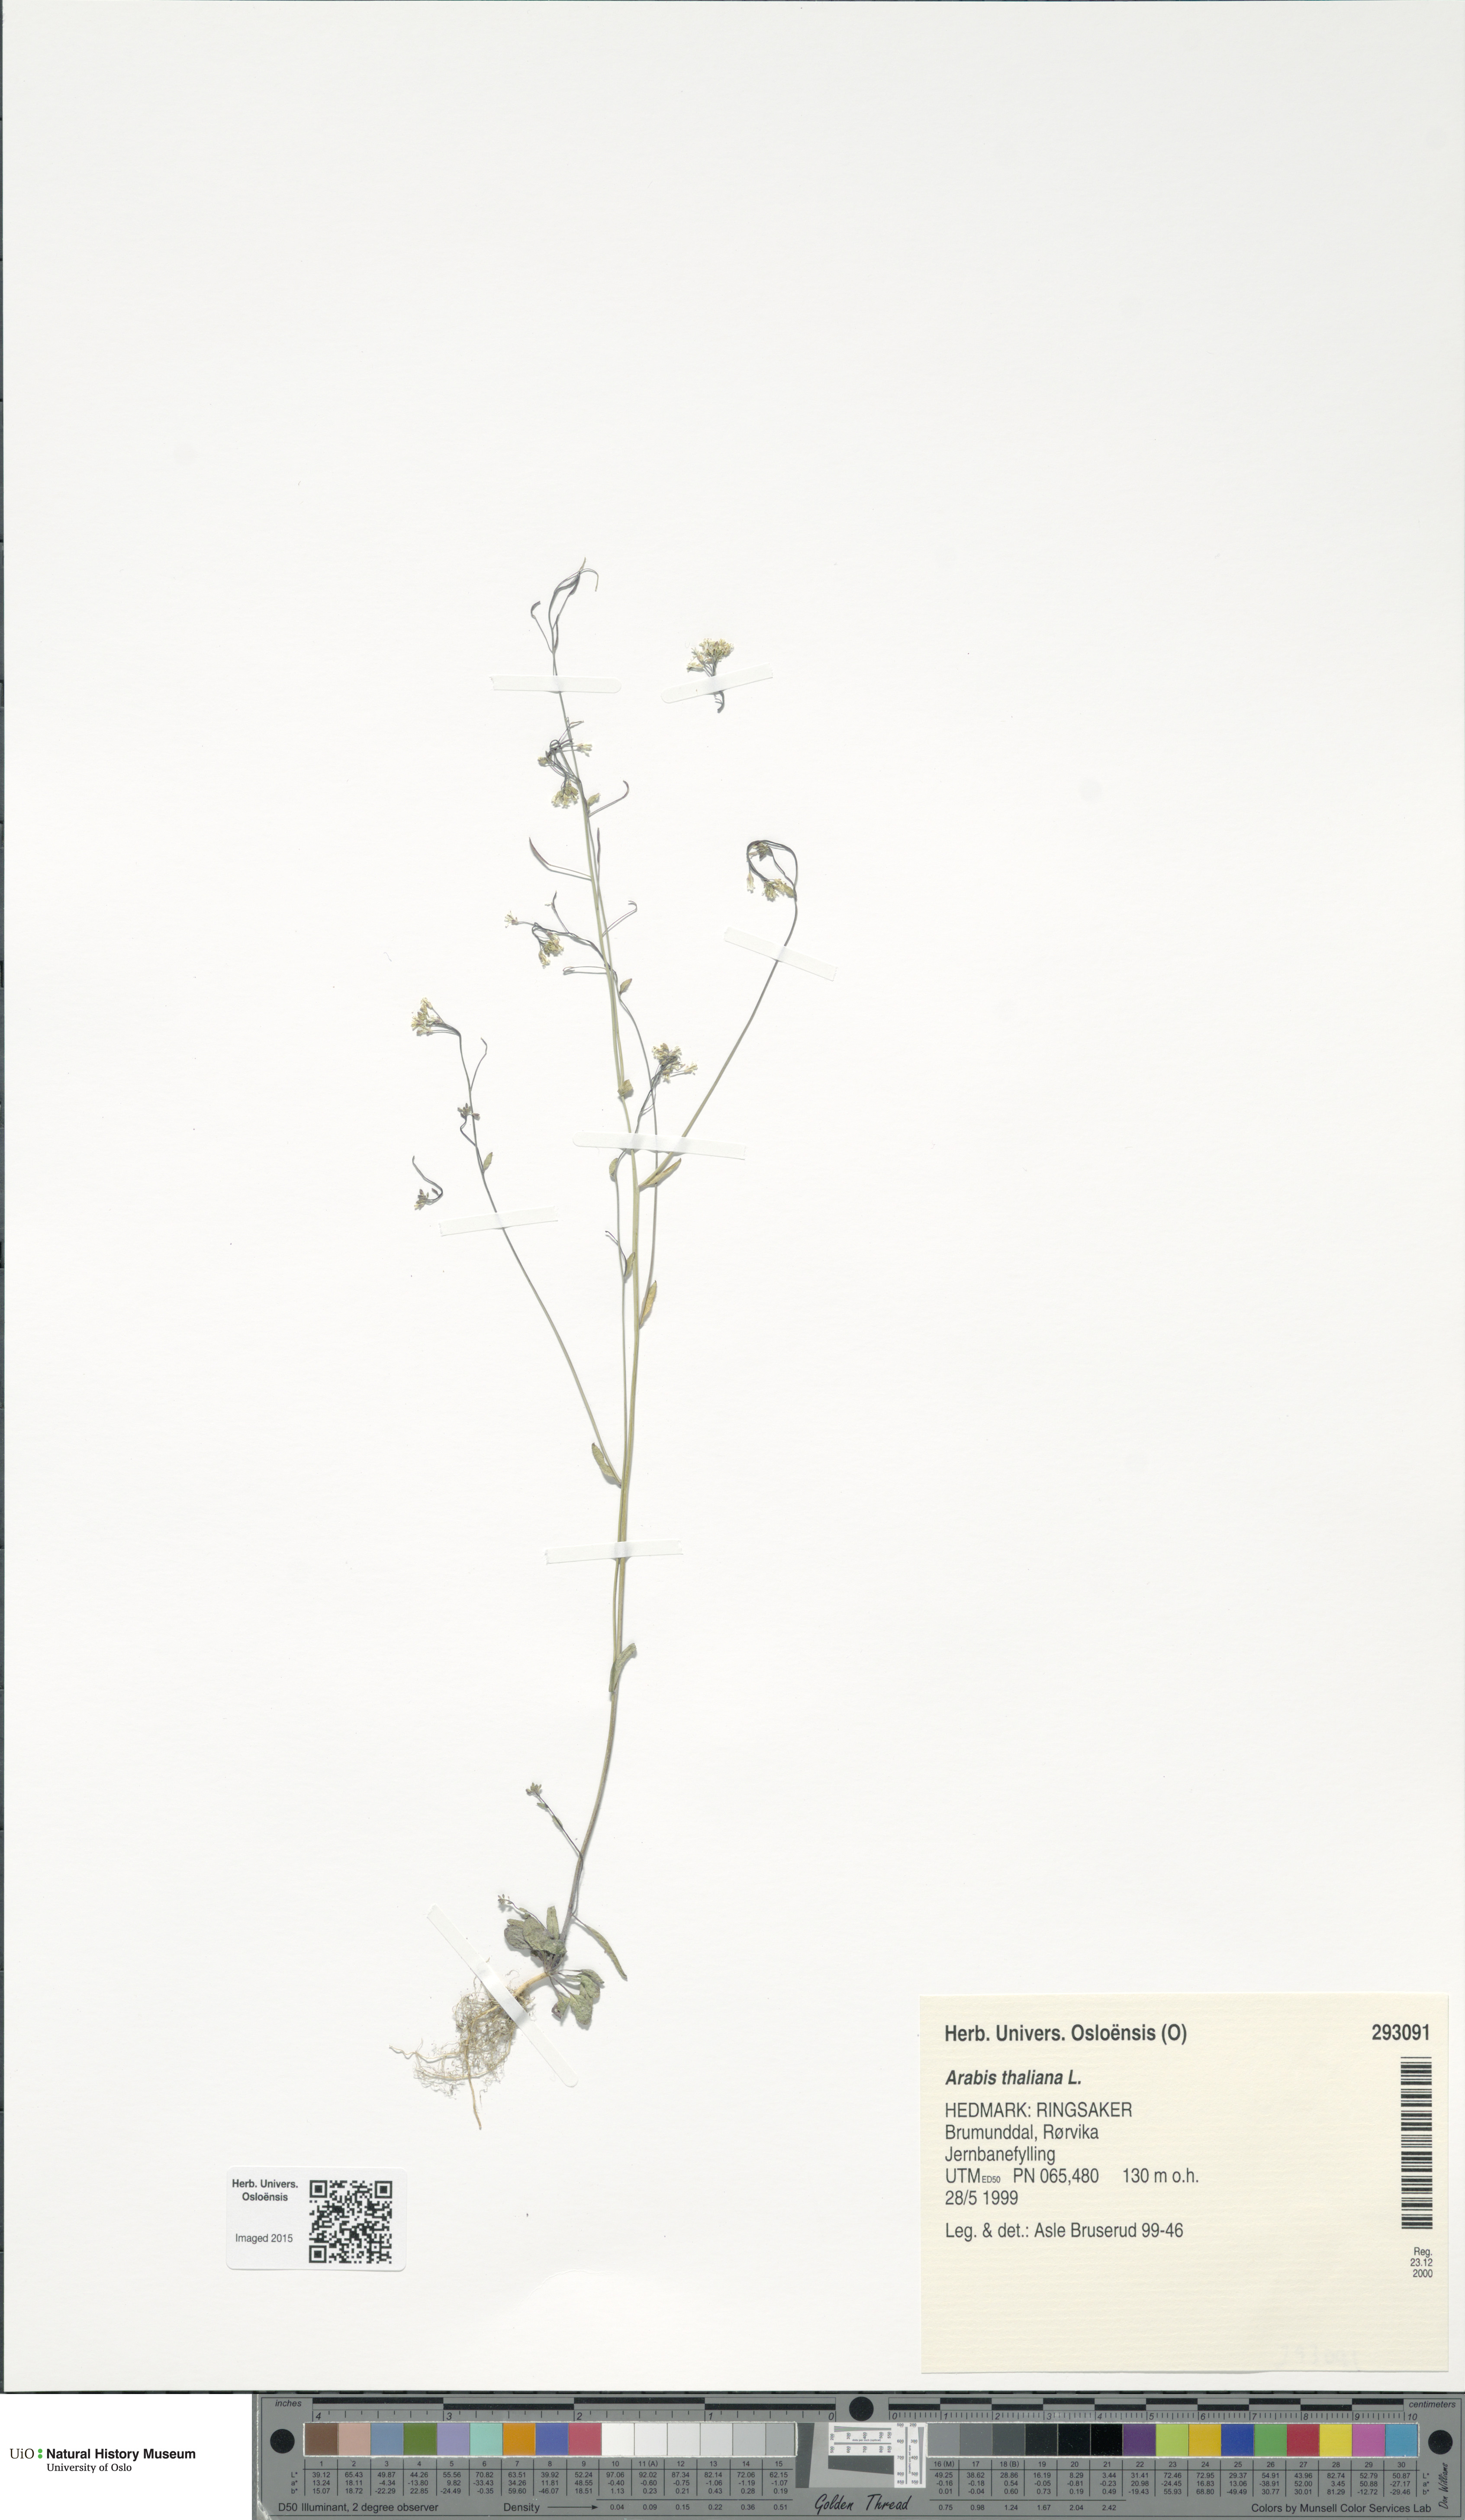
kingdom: Plantae
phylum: Tracheophyta
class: Magnoliopsida
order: Brassicales
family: Brassicaceae
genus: Arabidopsis
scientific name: Arabidopsis thaliana
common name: Thale cress
